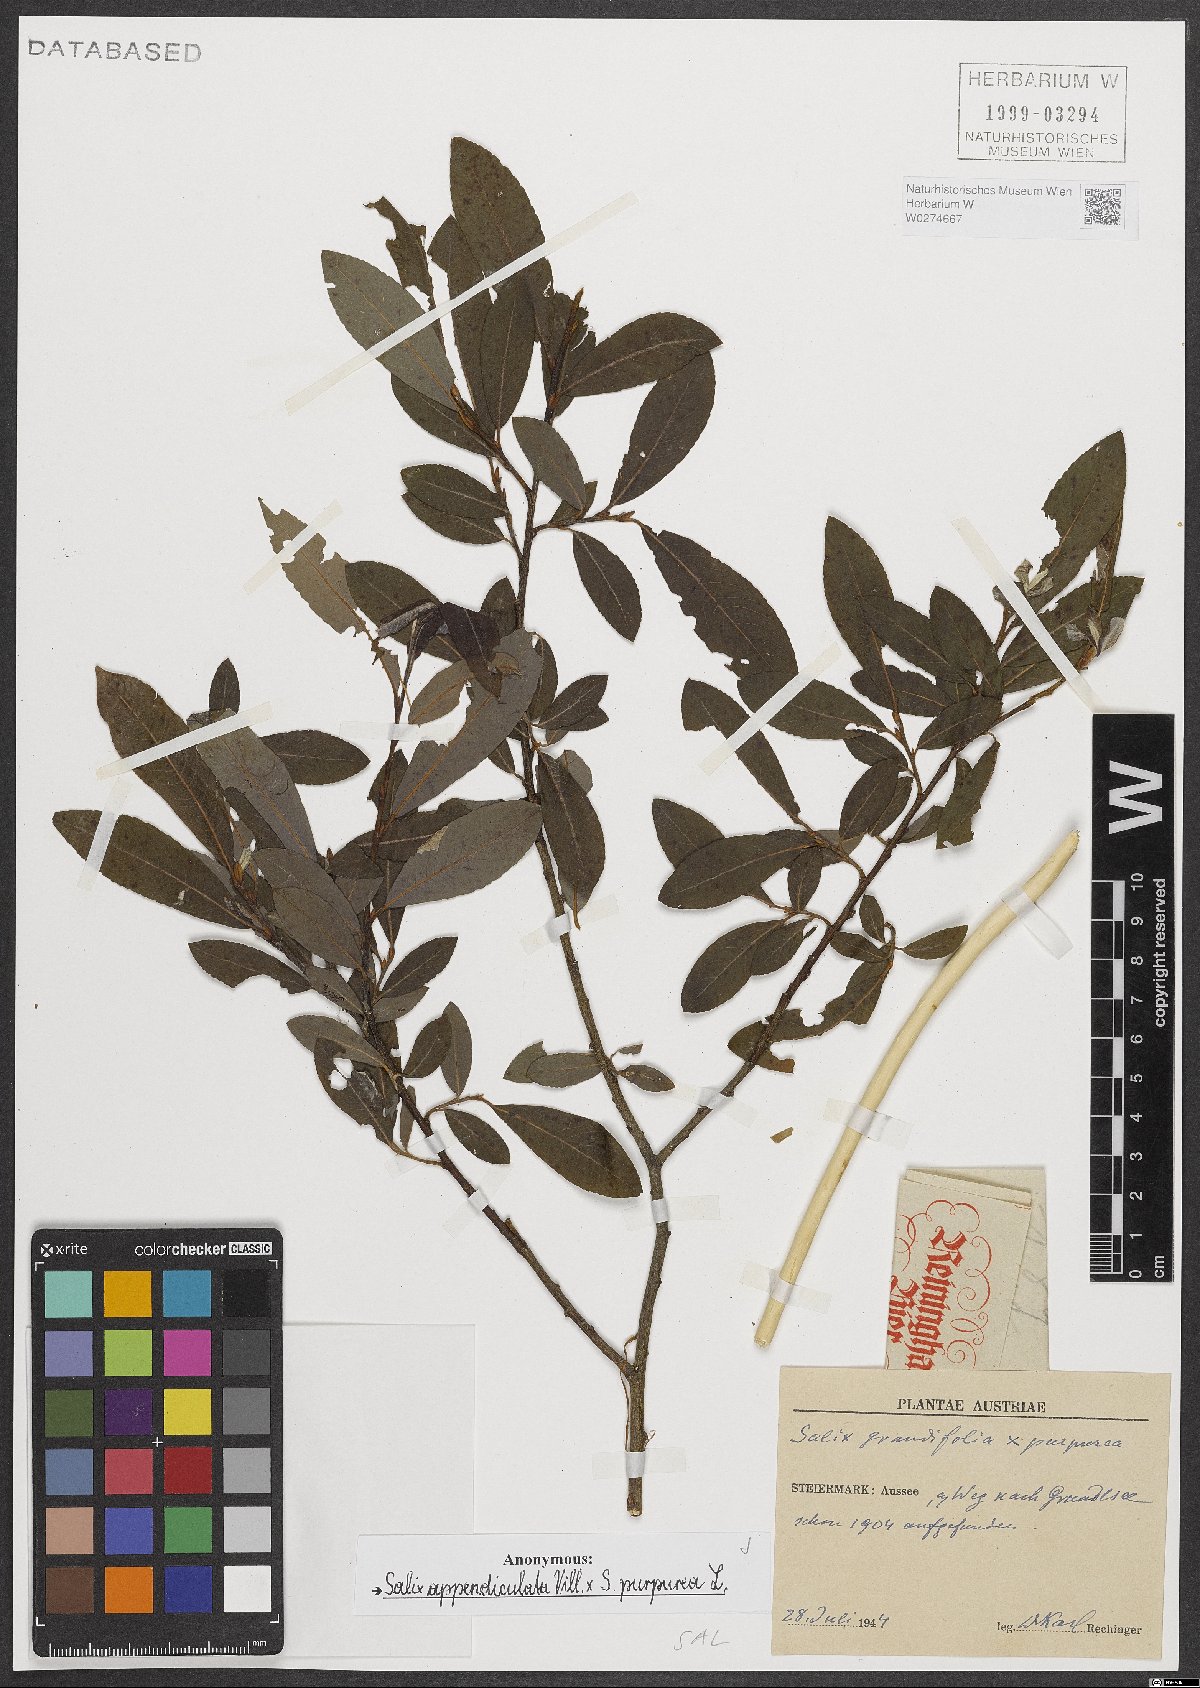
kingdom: Plantae
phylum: Tracheophyta
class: Magnoliopsida
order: Malpighiales
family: Salicaceae
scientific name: Salicaceae
